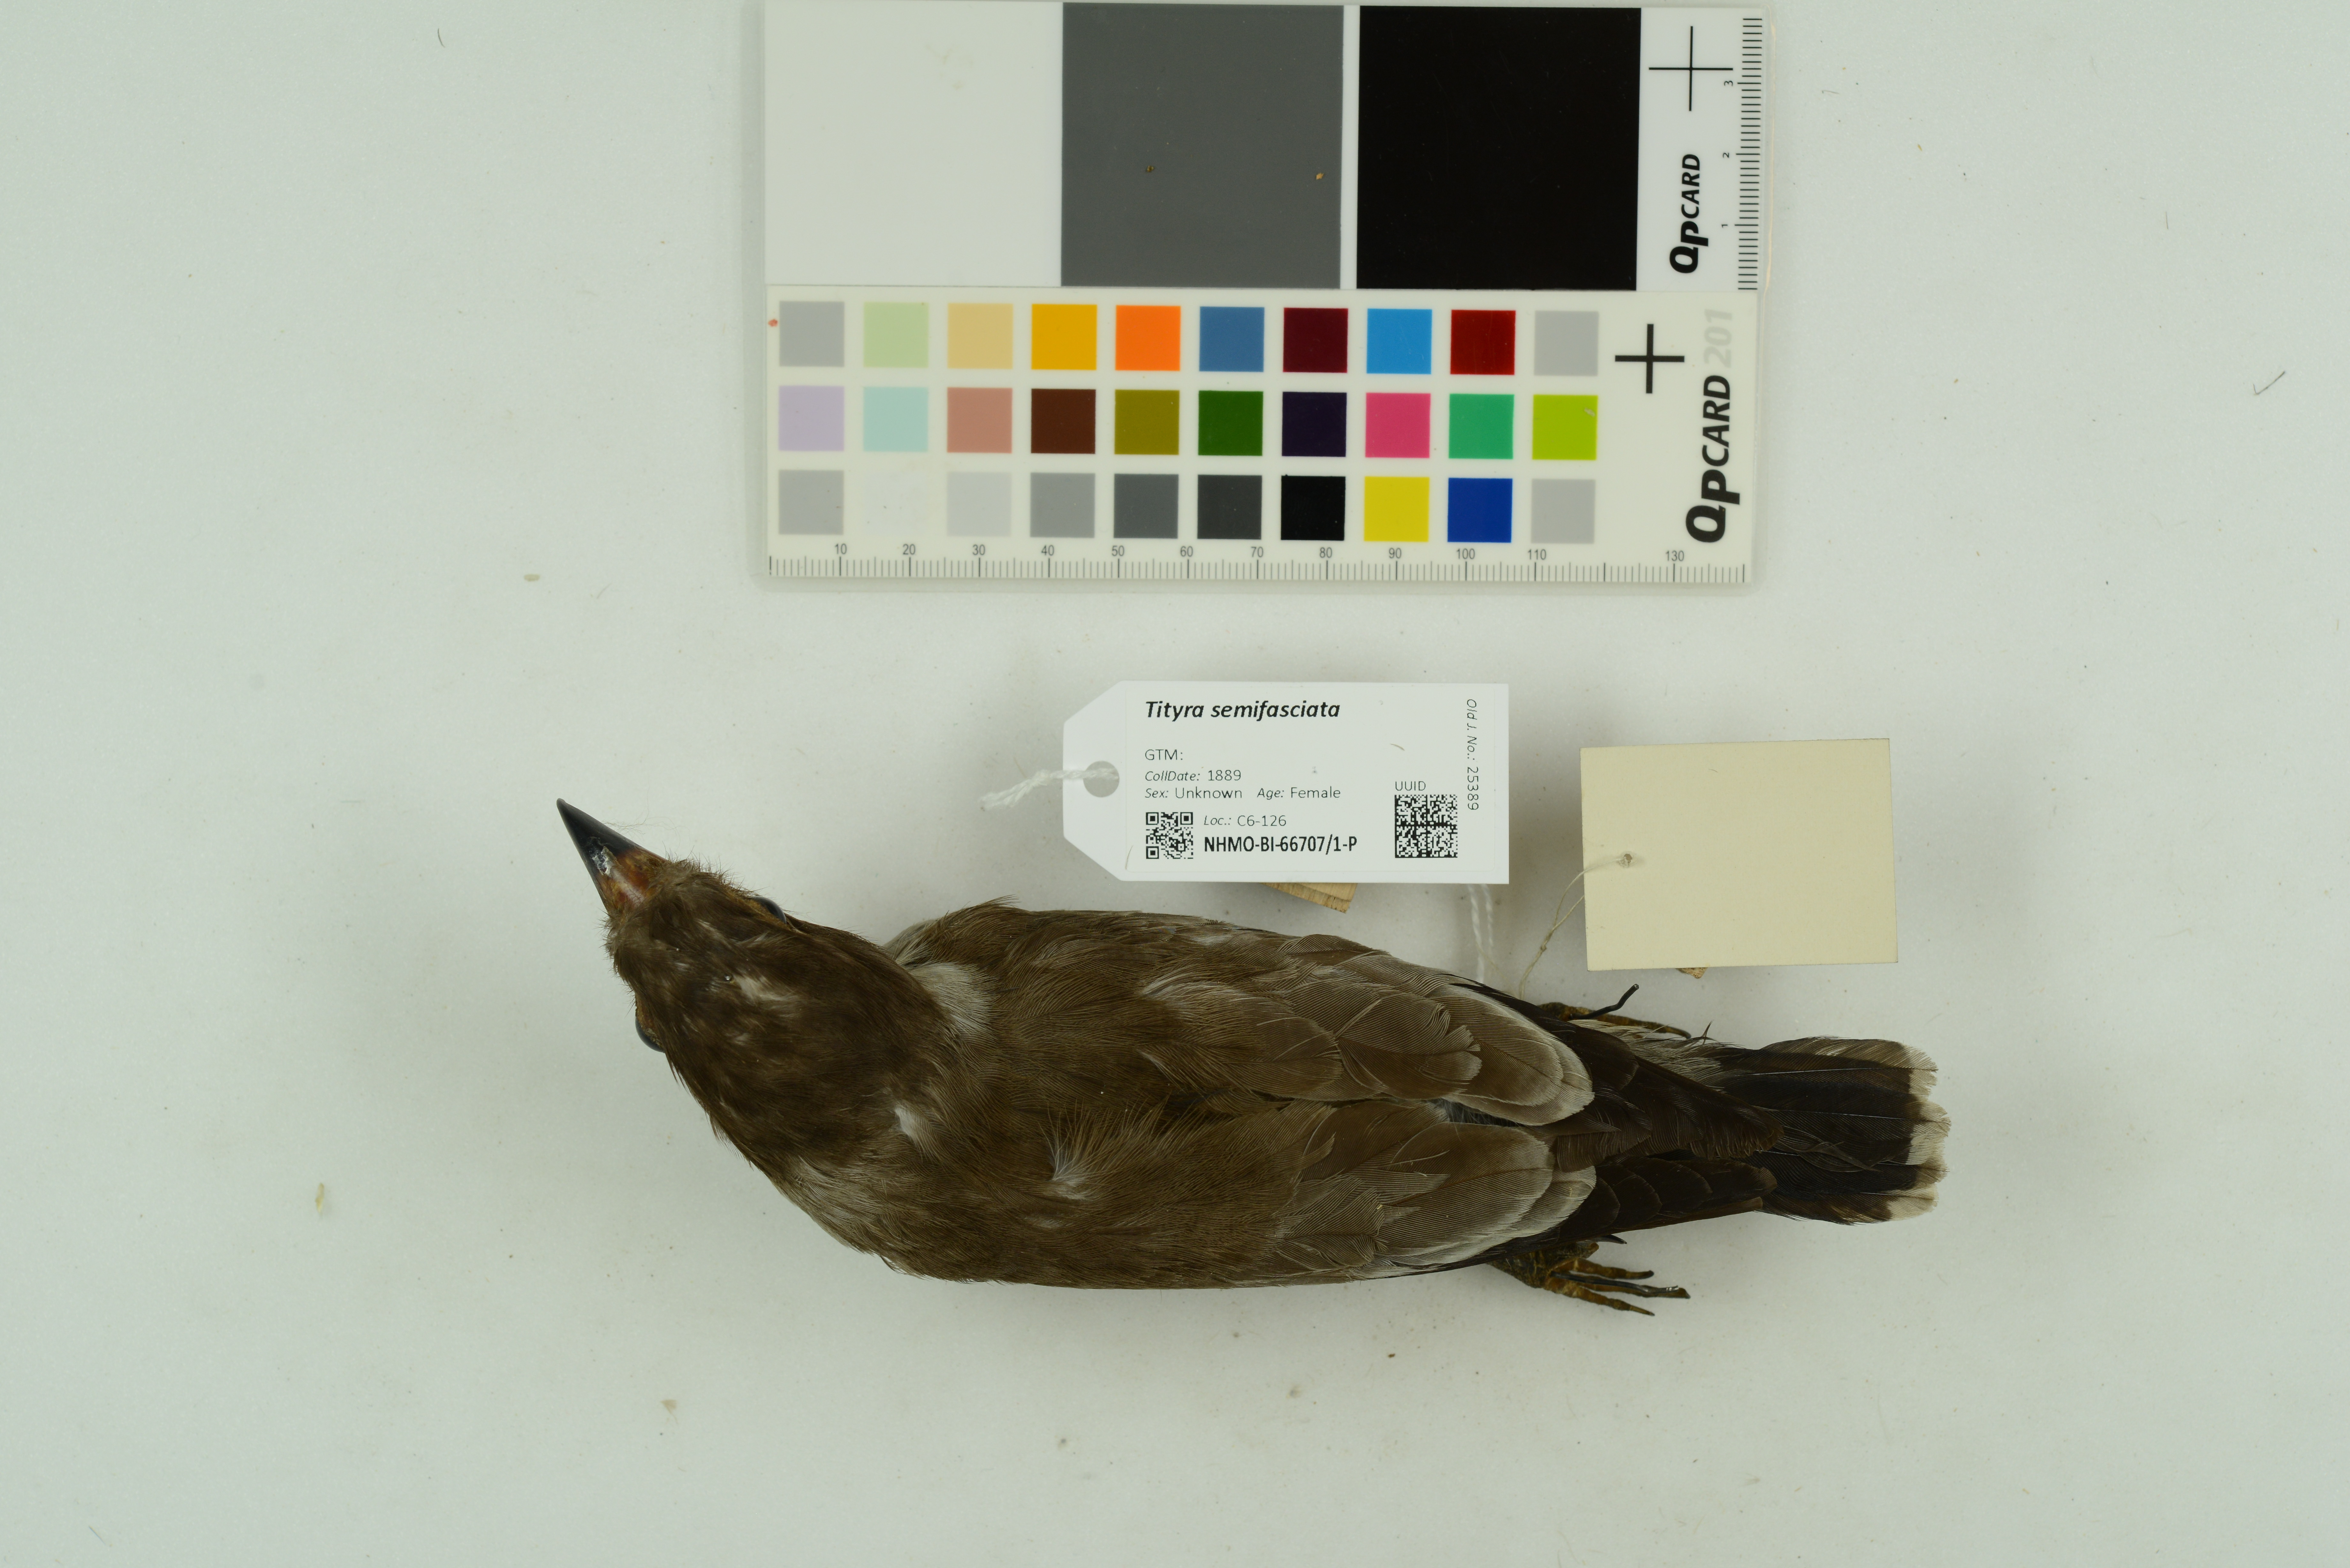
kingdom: Animalia
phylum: Chordata
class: Aves
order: Passeriformes
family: Cotingidae
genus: Tityra
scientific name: Tityra semifasciata
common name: Masked tityra
